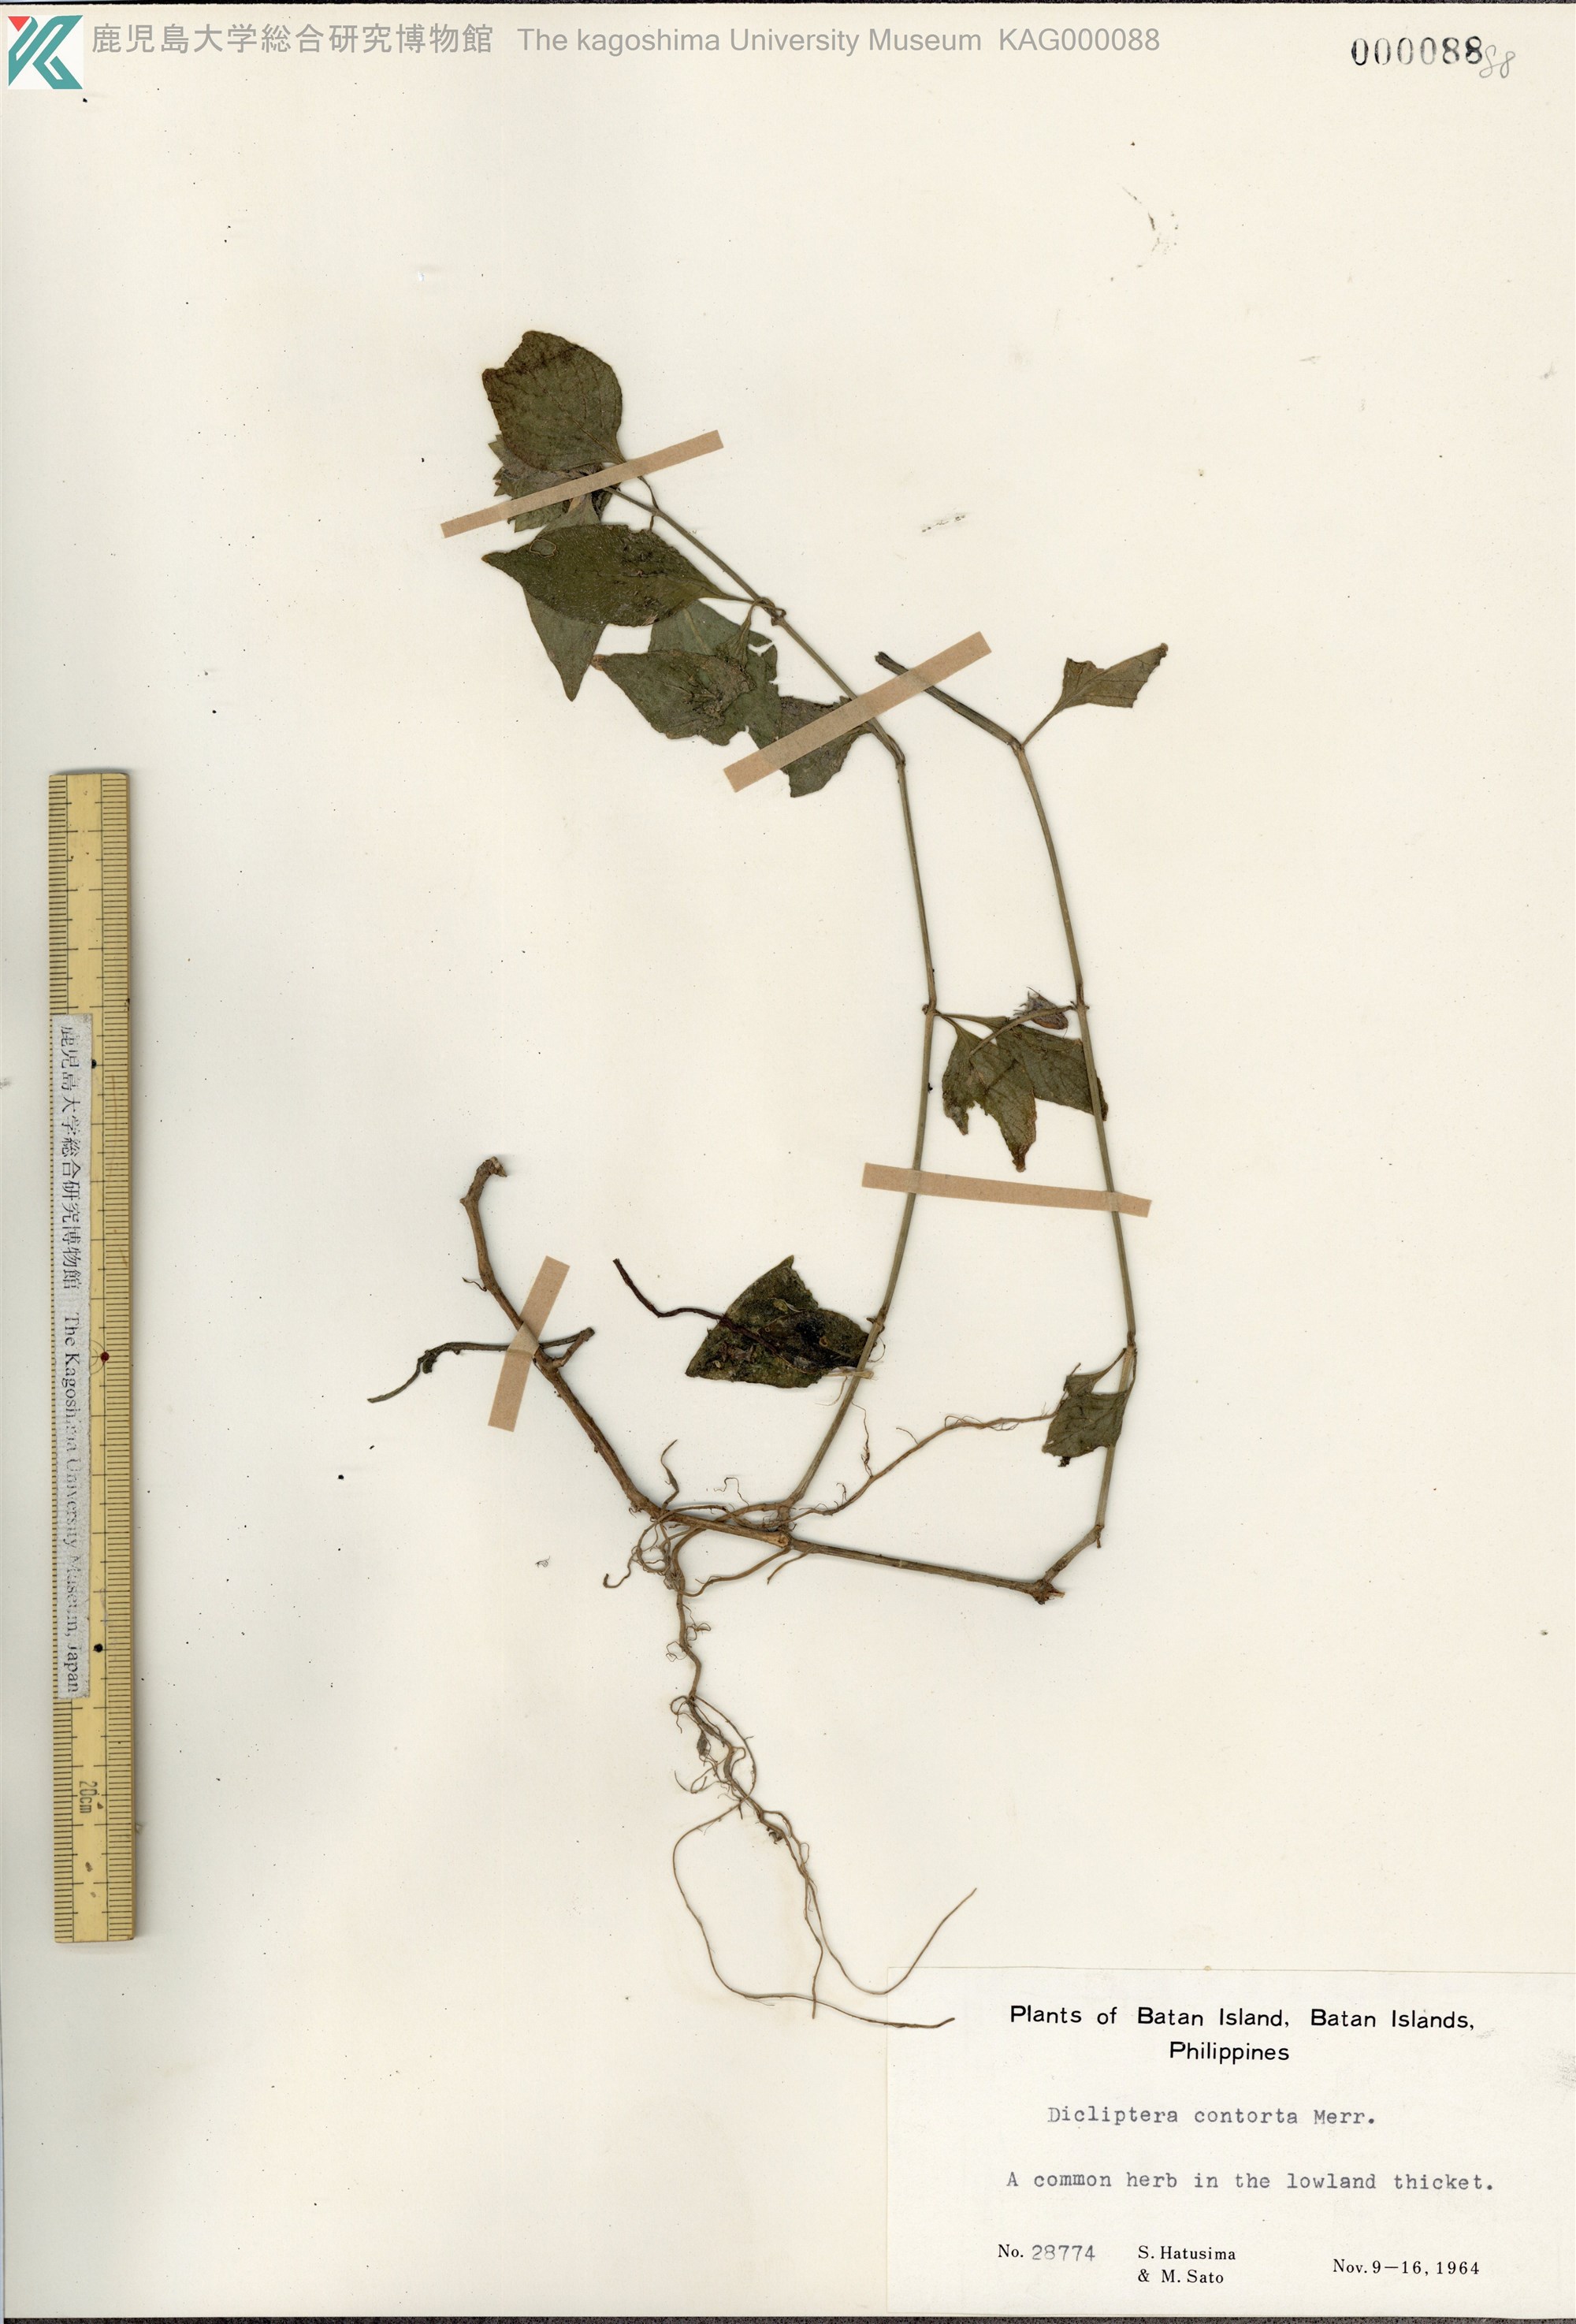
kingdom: Plantae
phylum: Tracheophyta
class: Magnoliopsida
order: Lamiales
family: Acanthaceae
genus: Dicliptera
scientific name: Dicliptera contorta
